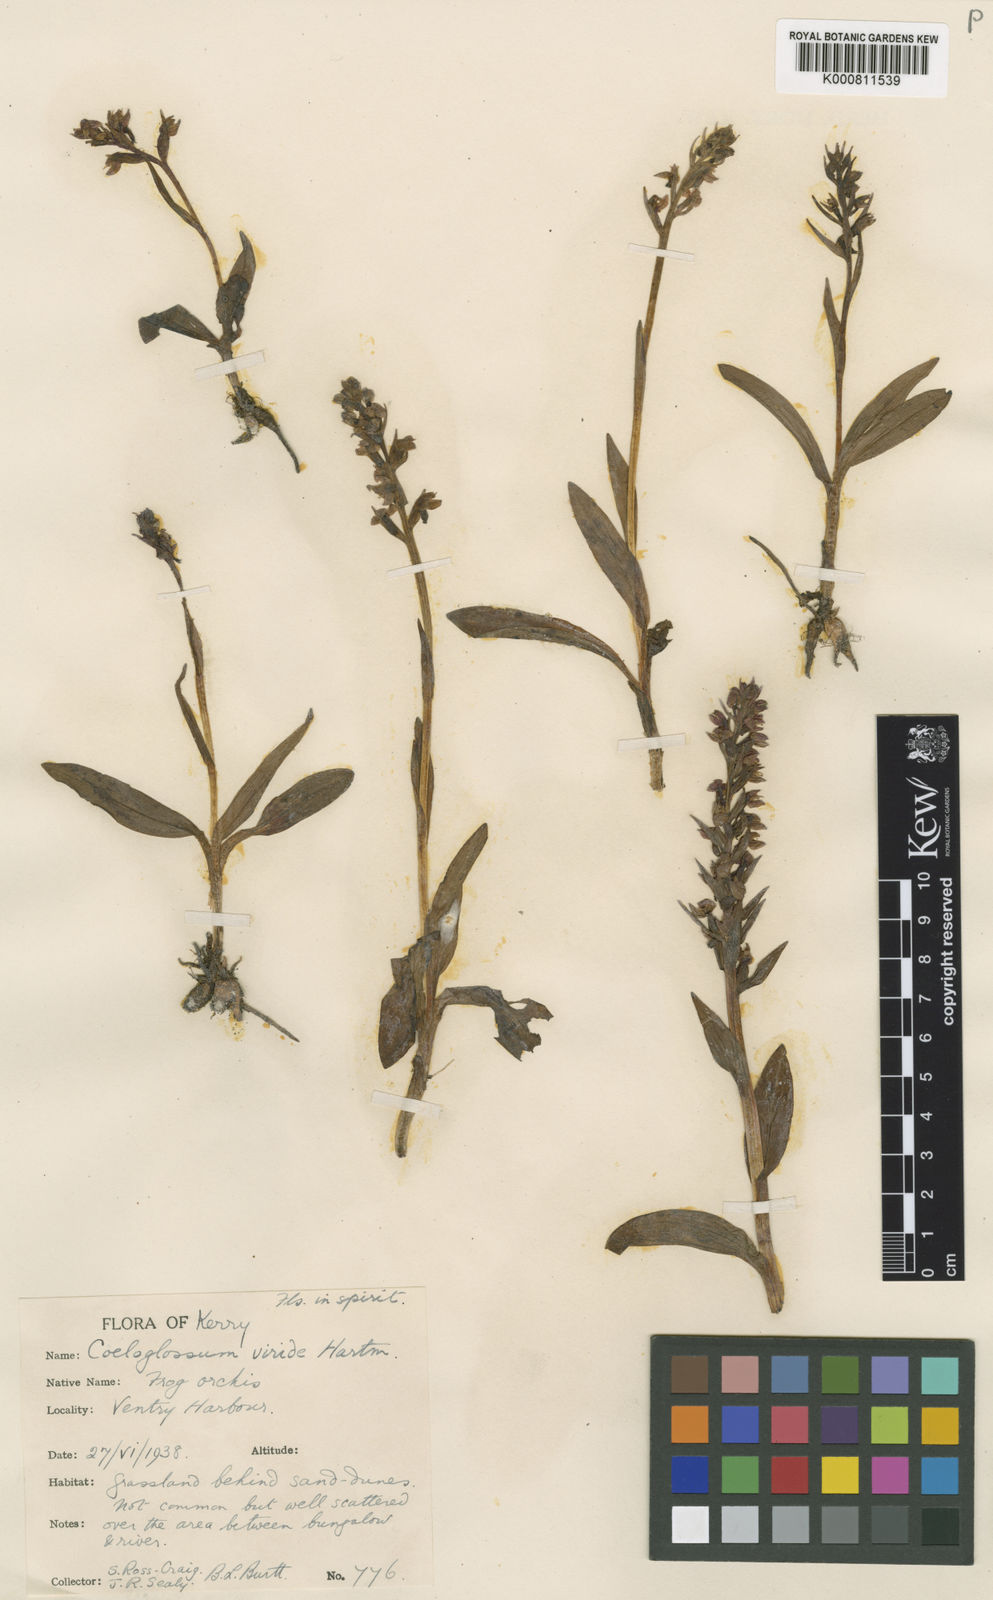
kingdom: Plantae
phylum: Tracheophyta
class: Liliopsida
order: Asparagales
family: Orchidaceae
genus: Dactylorhiza
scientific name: Dactylorhiza viridis
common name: Longbract frog orchid
